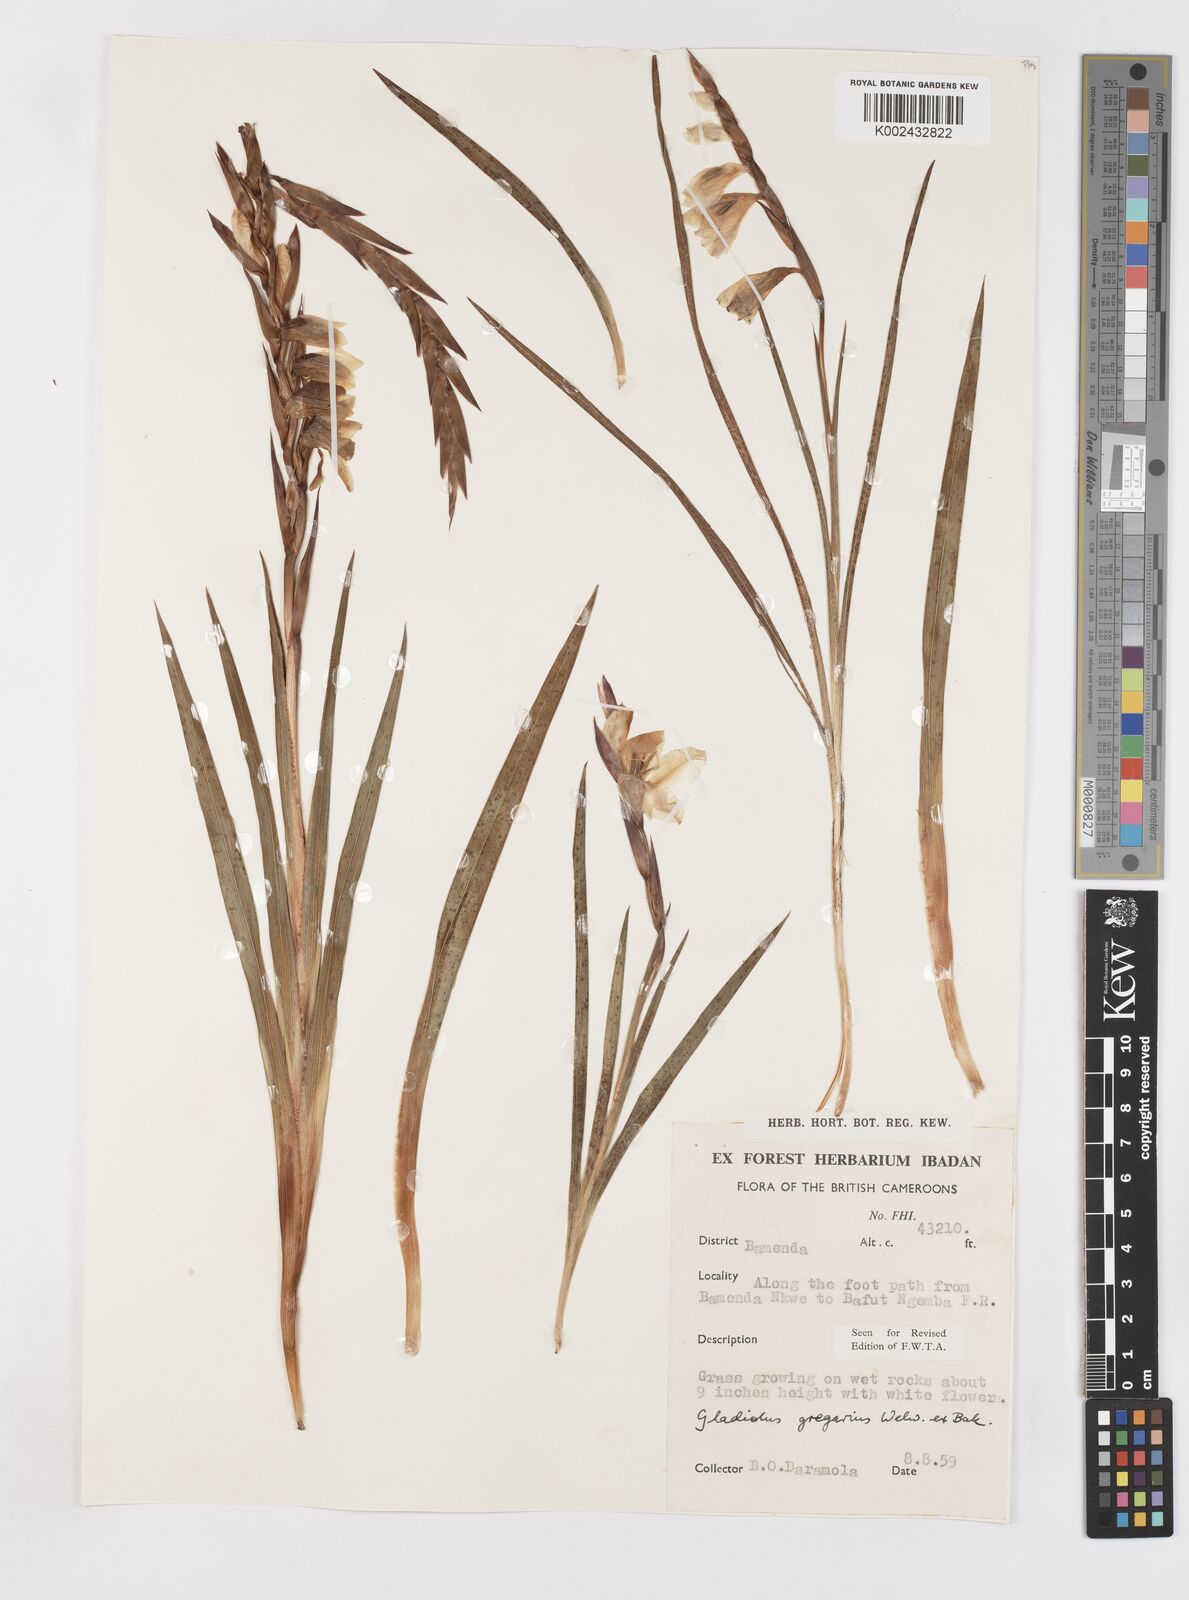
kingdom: Plantae
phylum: Tracheophyta
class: Liliopsida
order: Asparagales
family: Iridaceae
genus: Gladiolus
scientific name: Gladiolus gregarius
